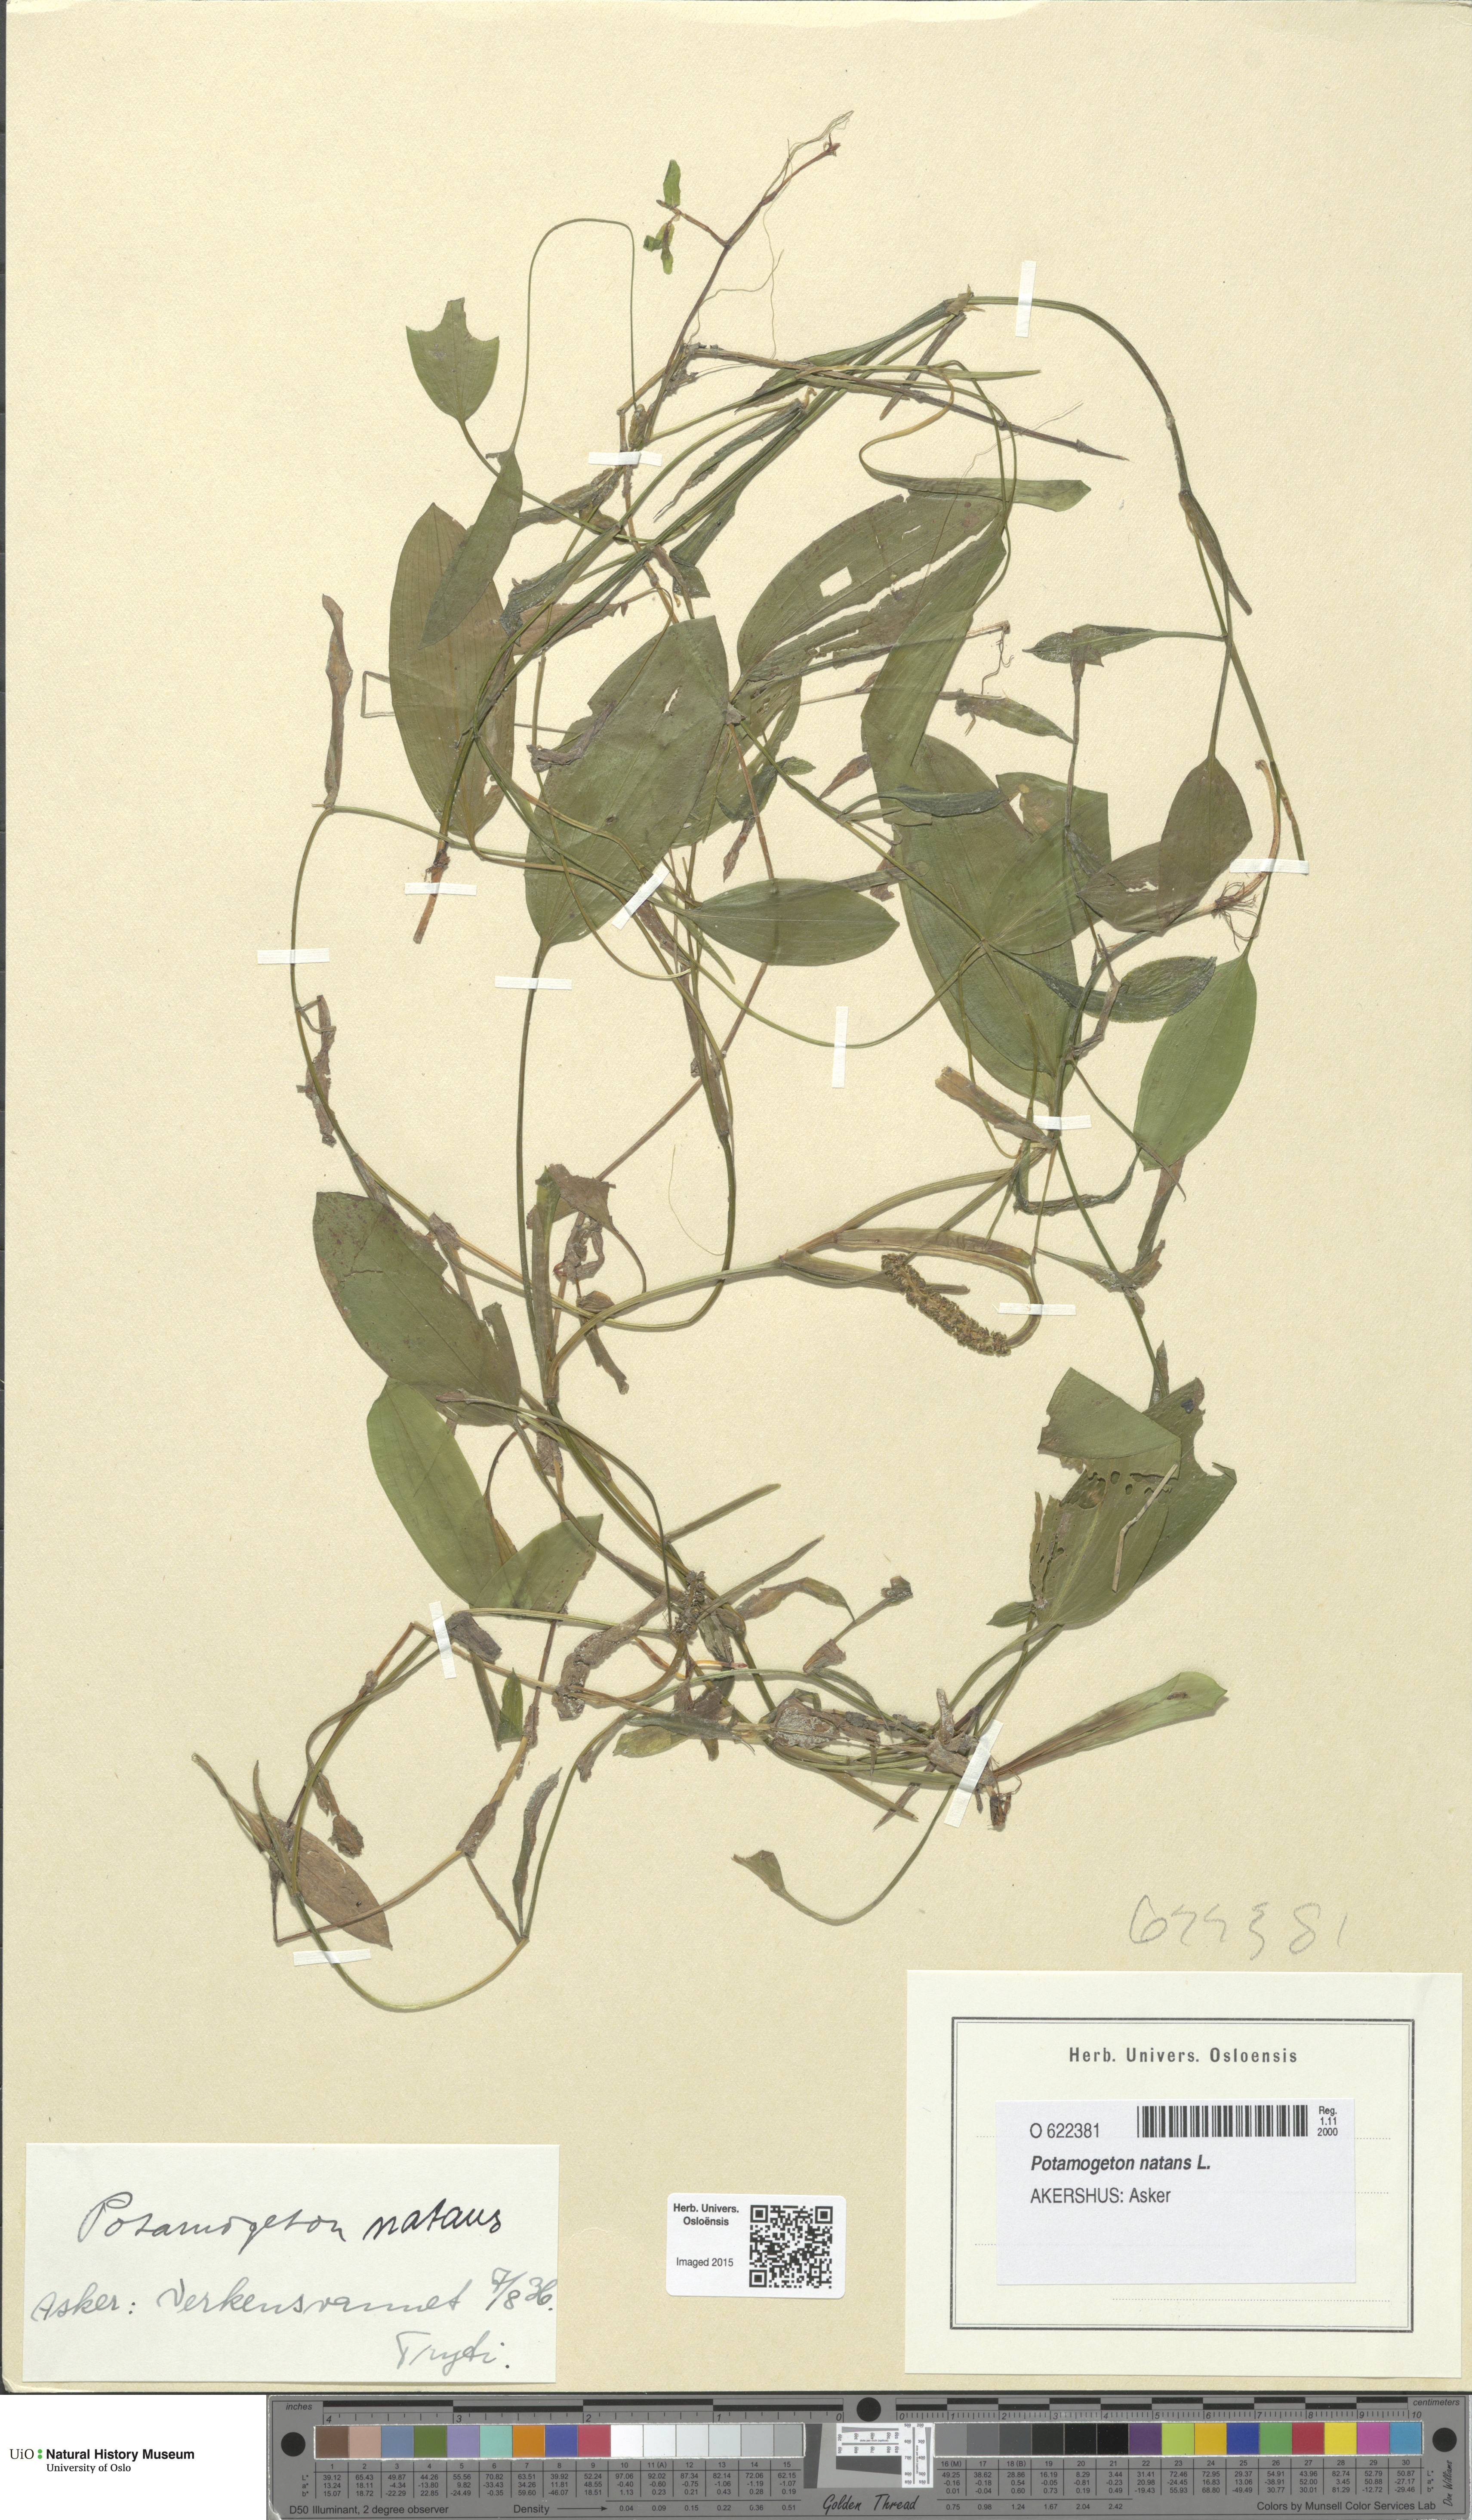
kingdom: Plantae
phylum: Tracheophyta
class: Liliopsida
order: Alismatales
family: Potamogetonaceae
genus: Potamogeton
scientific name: Potamogeton angustifolius
